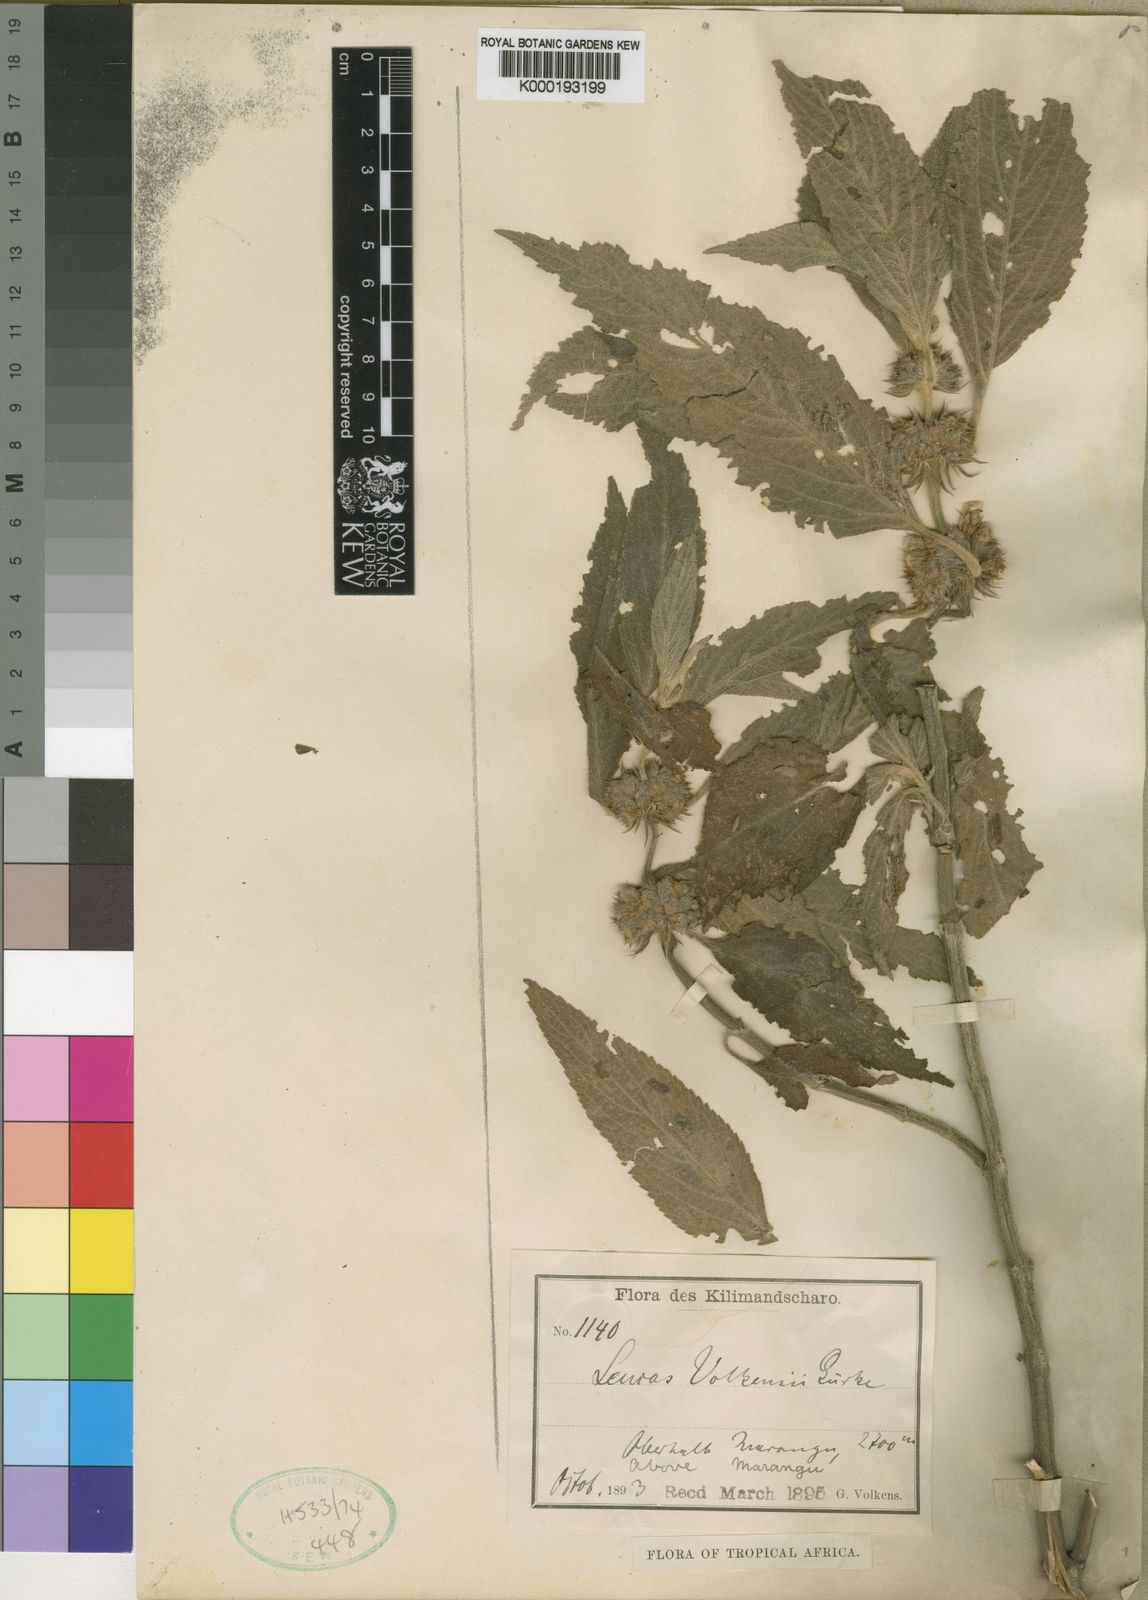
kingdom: Plantae
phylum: Tracheophyta
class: Magnoliopsida
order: Lamiales
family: Lamiaceae
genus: Leucas
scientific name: Leucas
